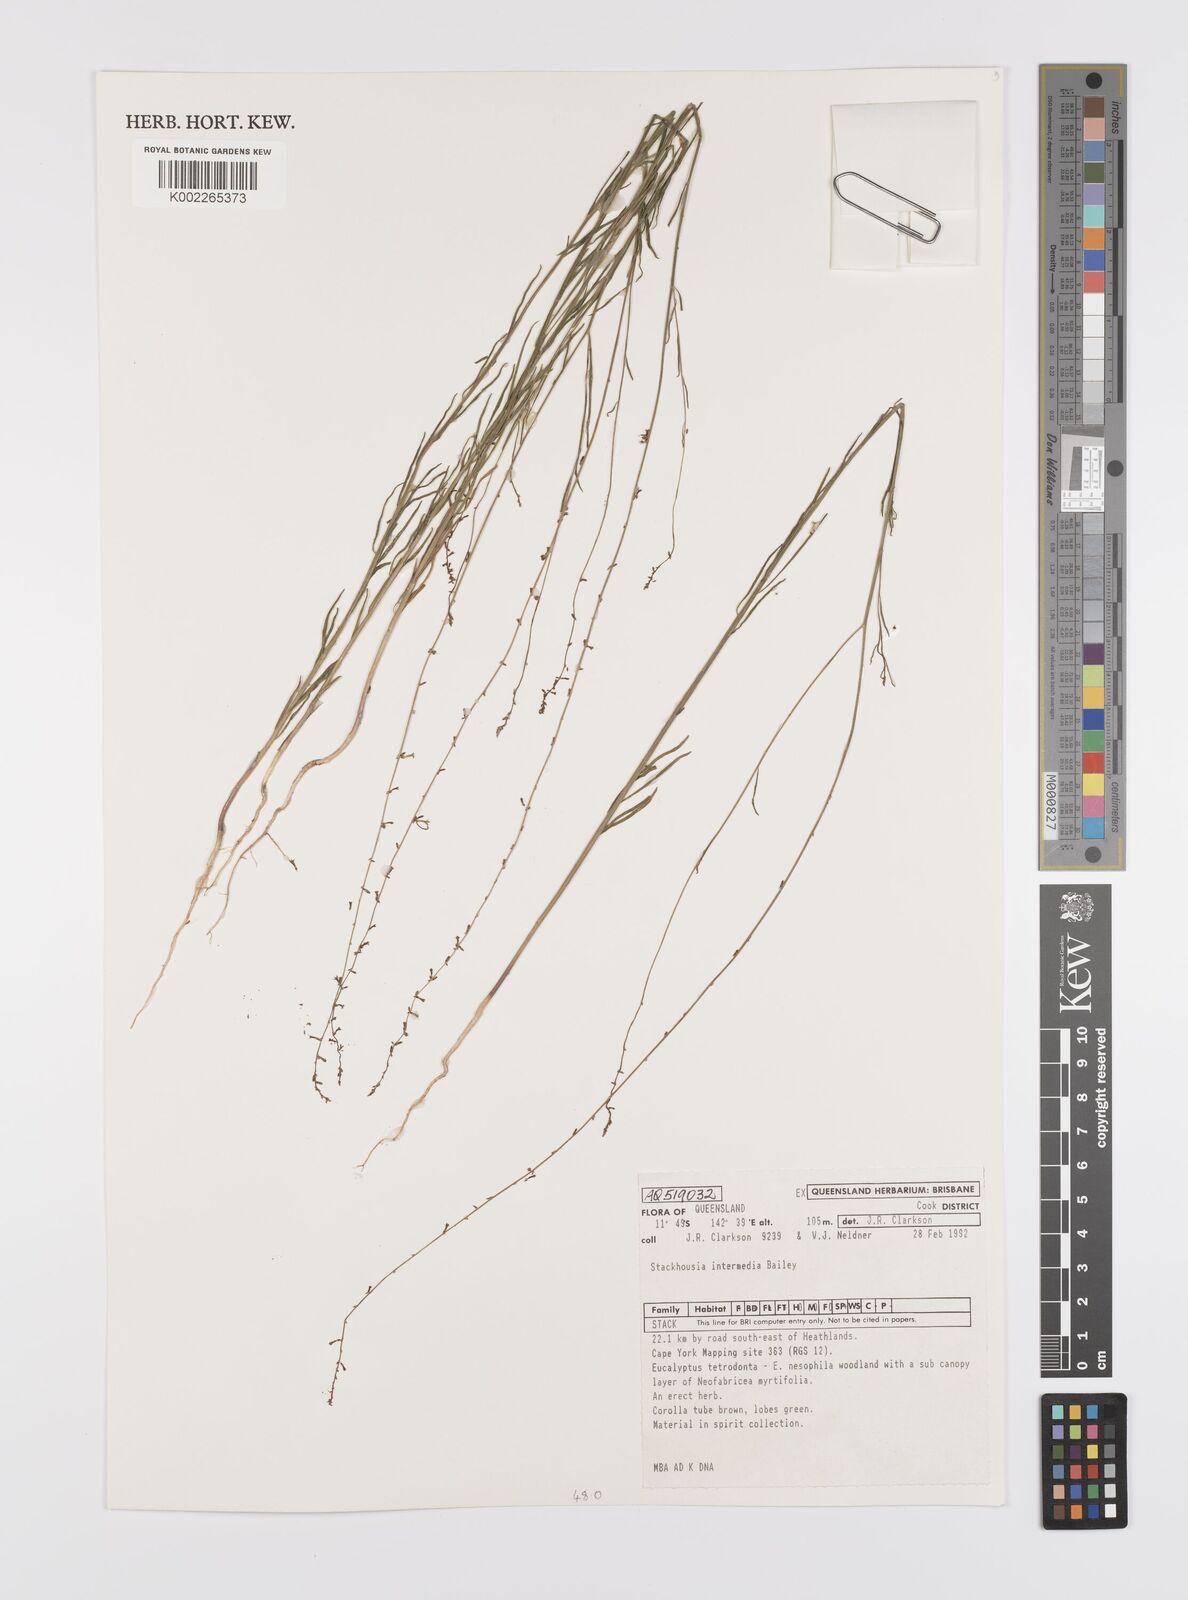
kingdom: Plantae
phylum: Tracheophyta
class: Magnoliopsida
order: Celastrales
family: Celastraceae
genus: Stackhousia
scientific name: Stackhousia intermedia
